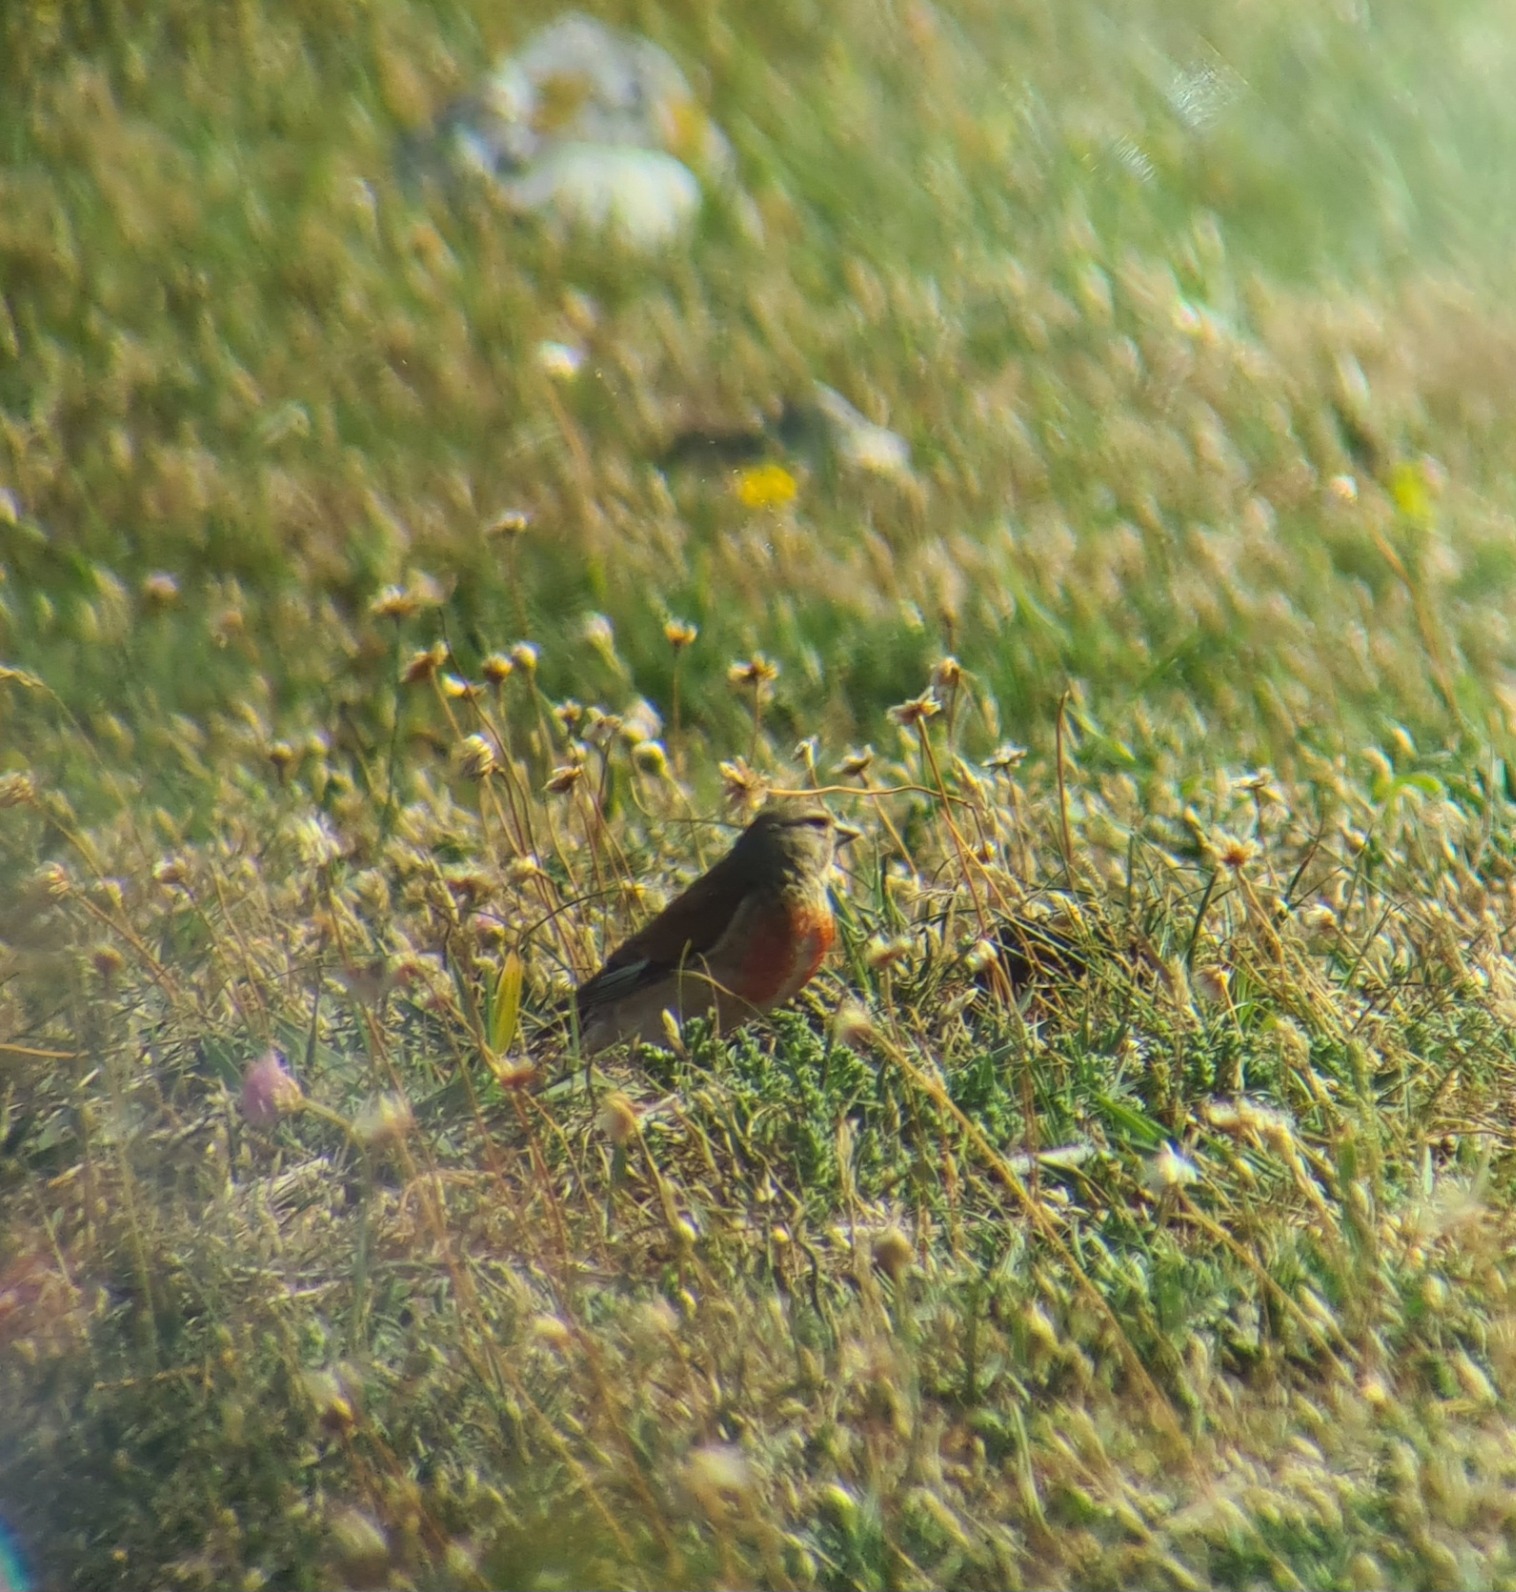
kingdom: Animalia
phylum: Chordata
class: Aves
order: Passeriformes
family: Fringillidae
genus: Linaria
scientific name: Linaria cannabina
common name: Tornirisk
